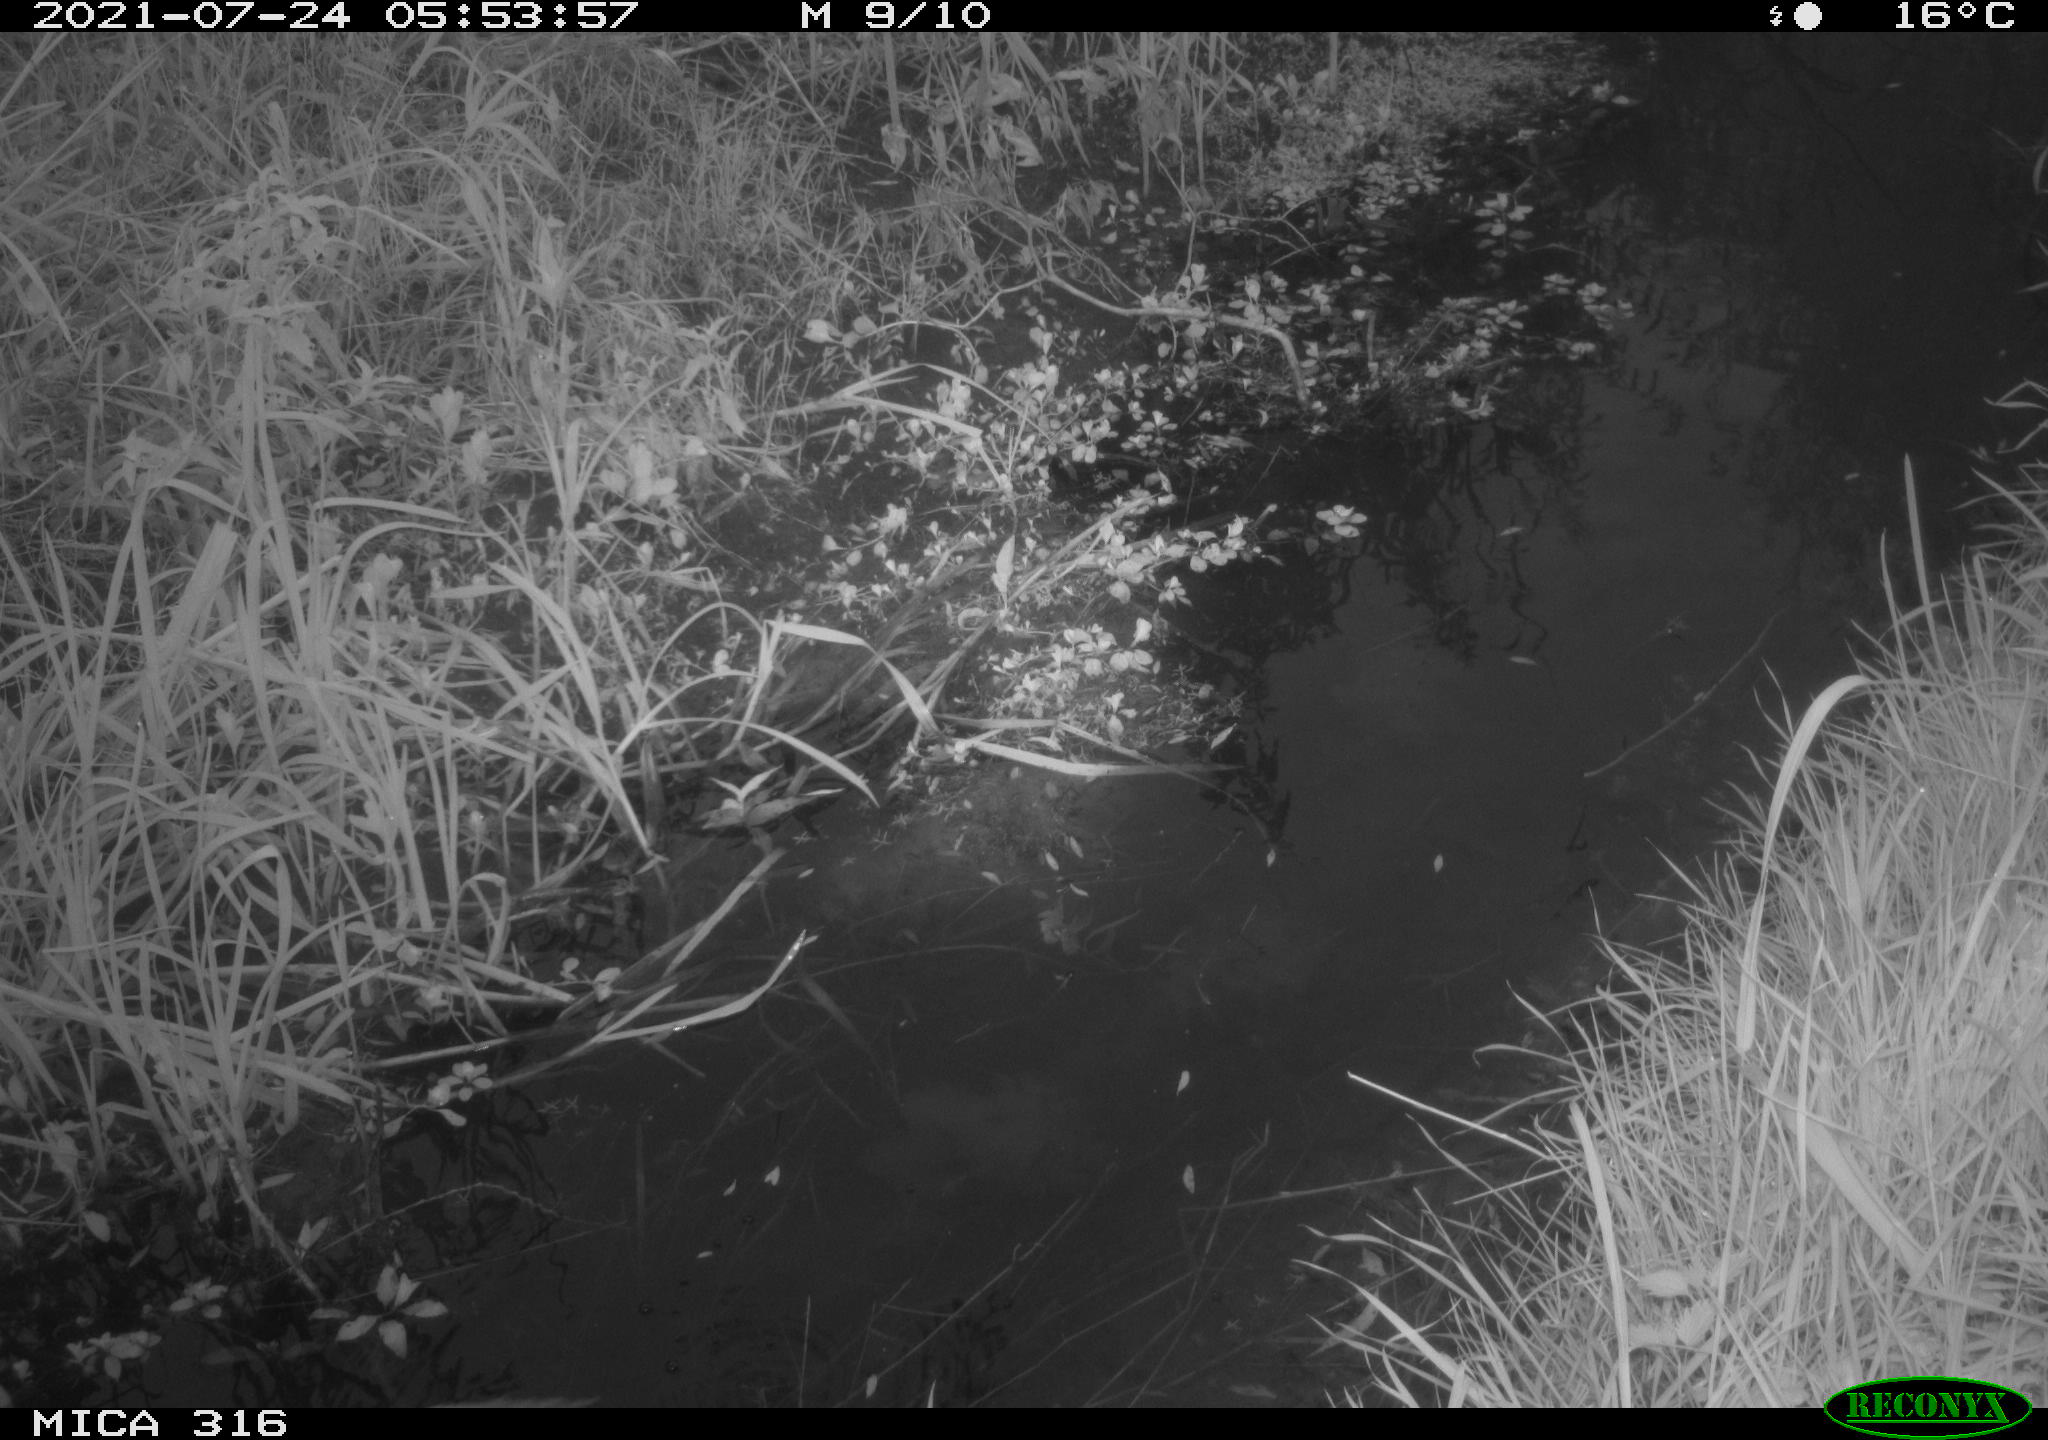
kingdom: Animalia
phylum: Chordata
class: Aves
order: Pelecaniformes
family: Ardeidae
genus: Ardea
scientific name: Ardea
